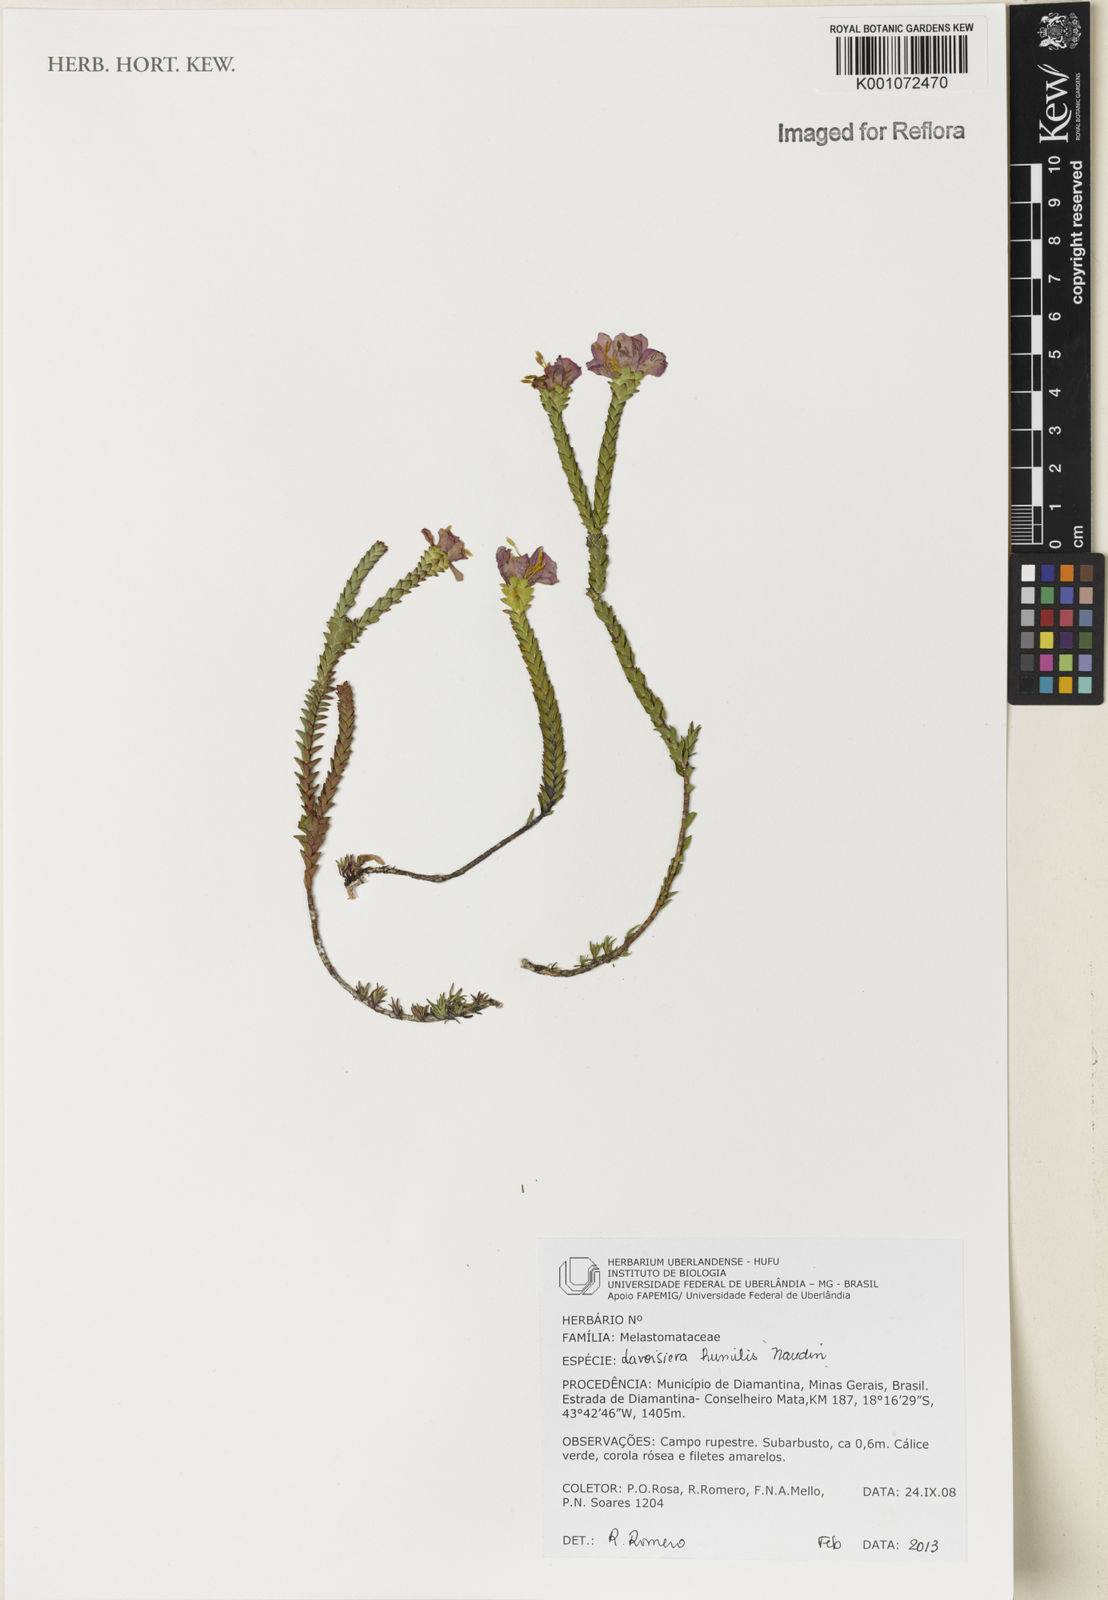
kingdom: Plantae
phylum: Tracheophyta
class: Magnoliopsida
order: Myrtales
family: Melastomataceae
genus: Microlicia
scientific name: Microlicia minor
